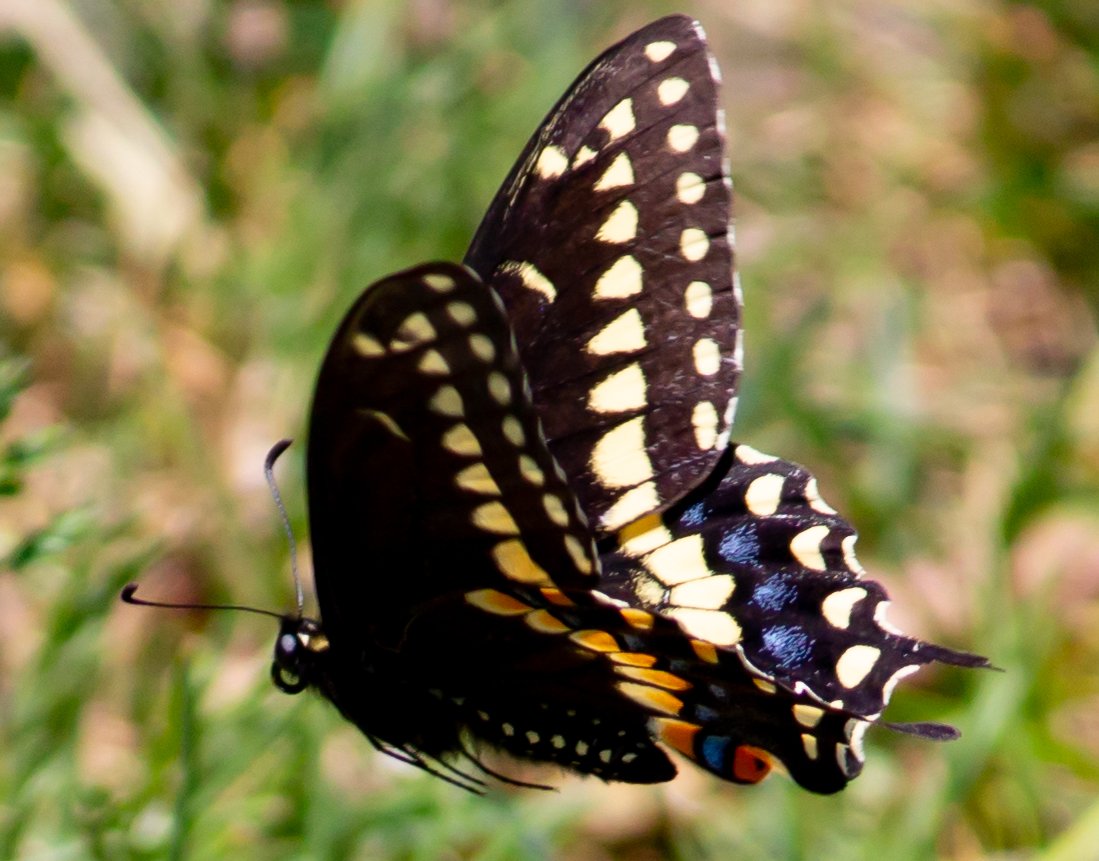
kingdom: Animalia
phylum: Arthropoda
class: Insecta
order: Lepidoptera
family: Papilionidae
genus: Papilio
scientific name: Papilio polyxenes
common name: Black Swallowtail
